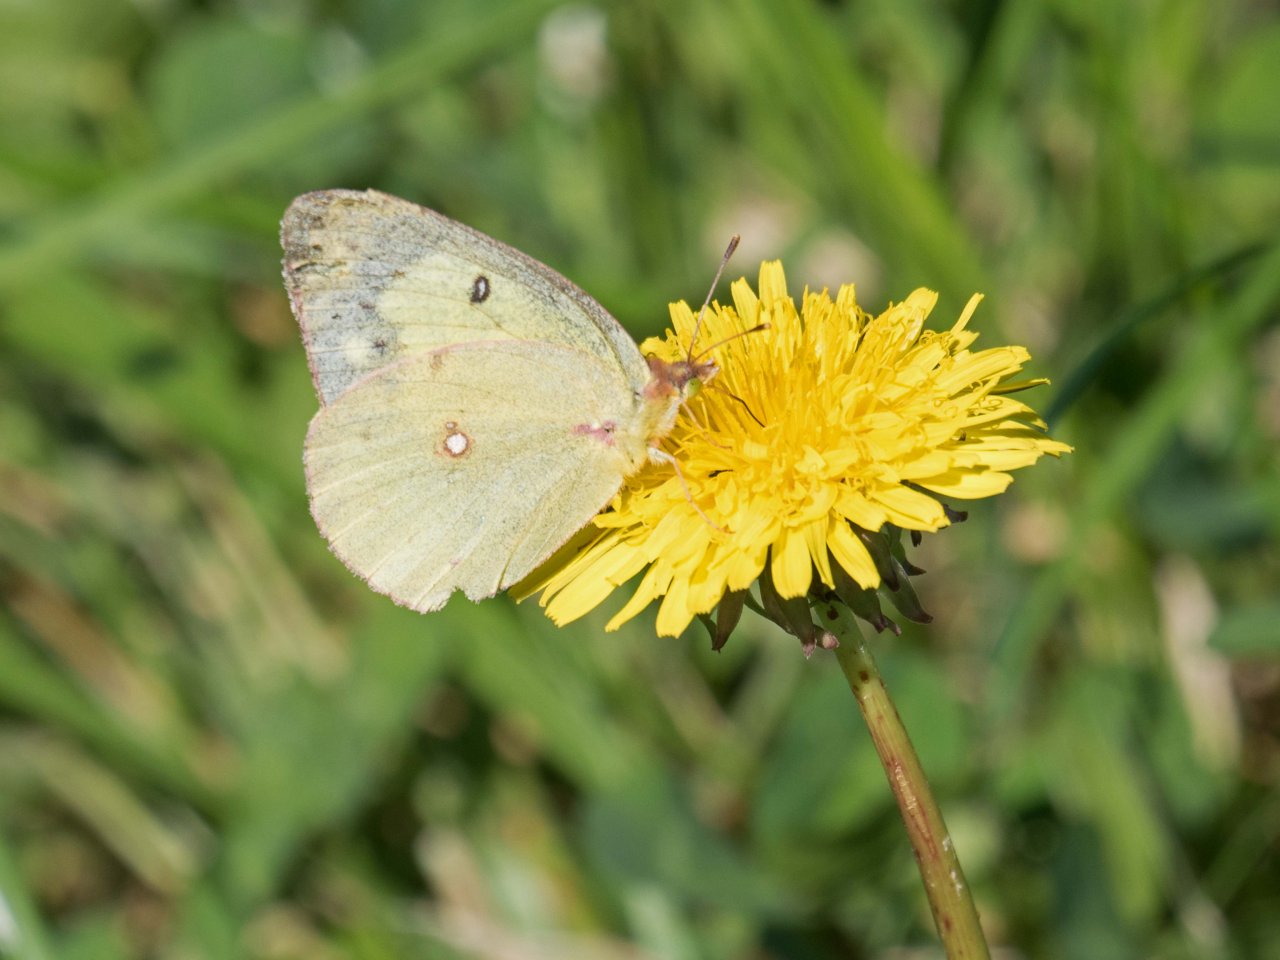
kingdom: Animalia
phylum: Arthropoda
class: Insecta
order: Lepidoptera
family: Pieridae
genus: Colias
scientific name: Colias
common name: Clouded Yellows
